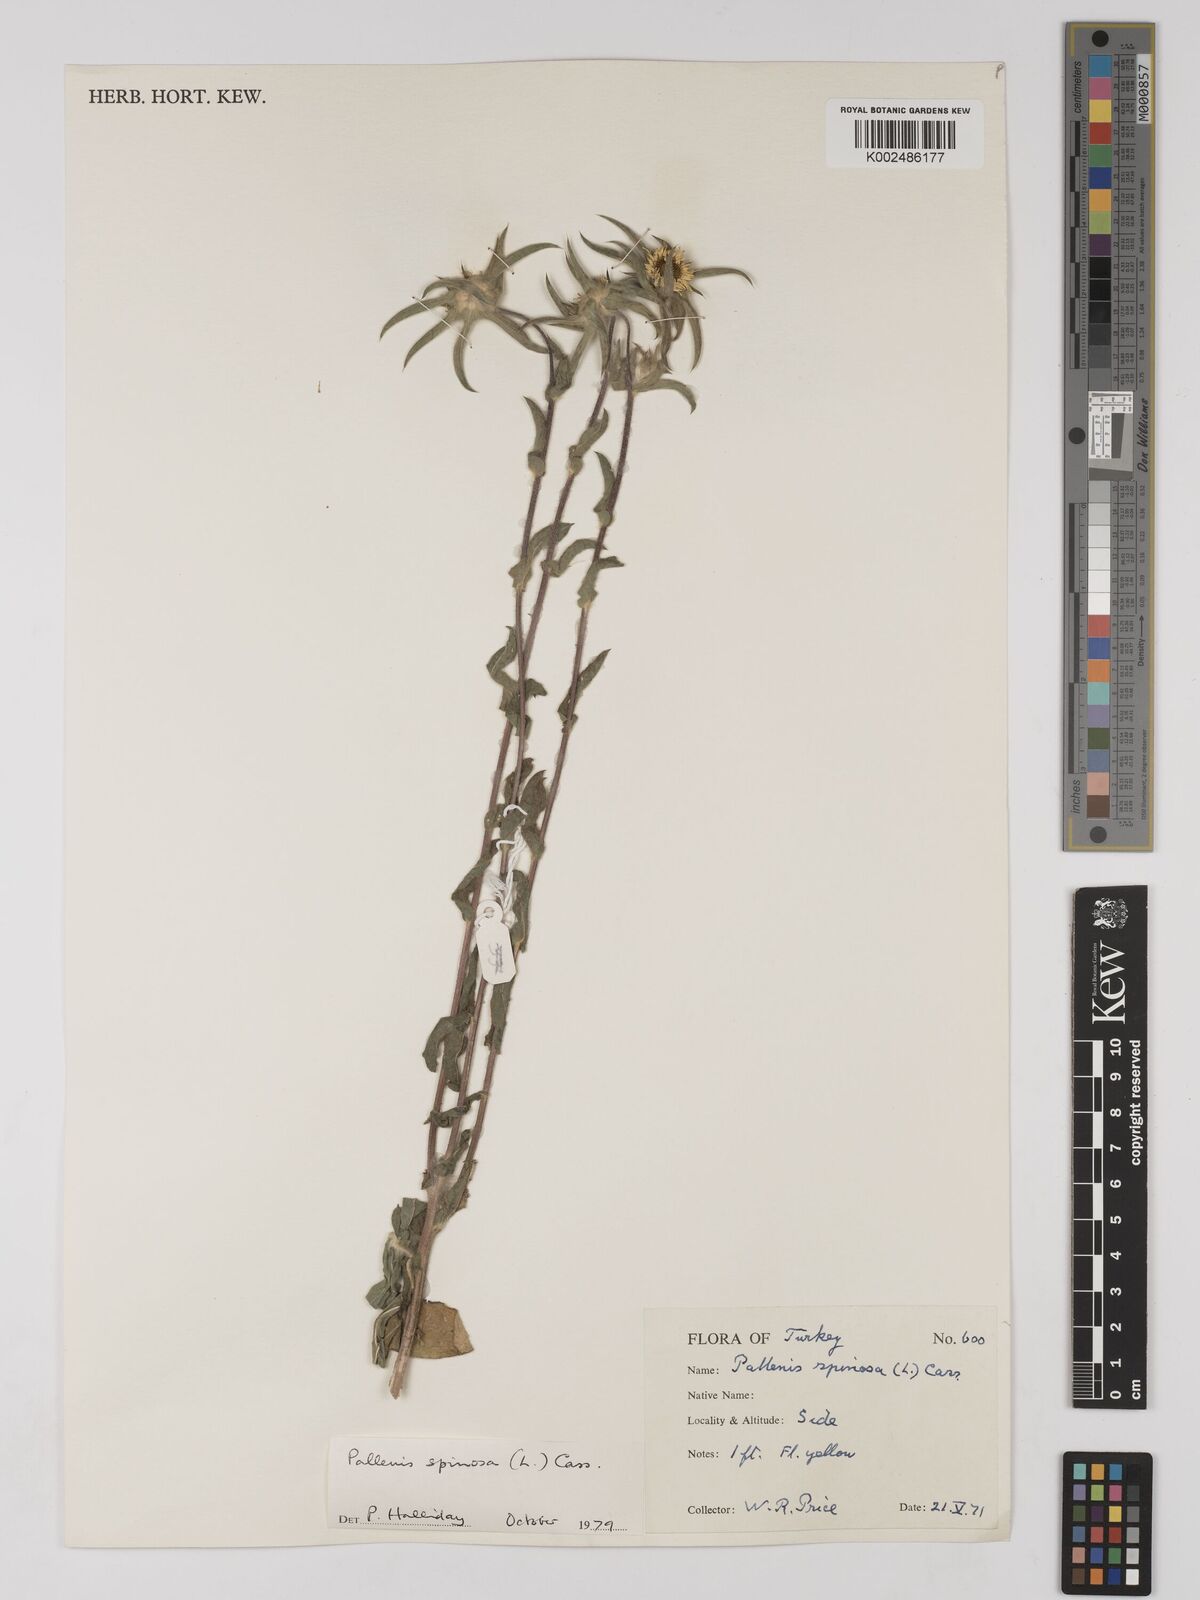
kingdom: Plantae
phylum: Tracheophyta
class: Magnoliopsida
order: Asterales
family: Asteraceae
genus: Pallenis
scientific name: Pallenis spinosa
